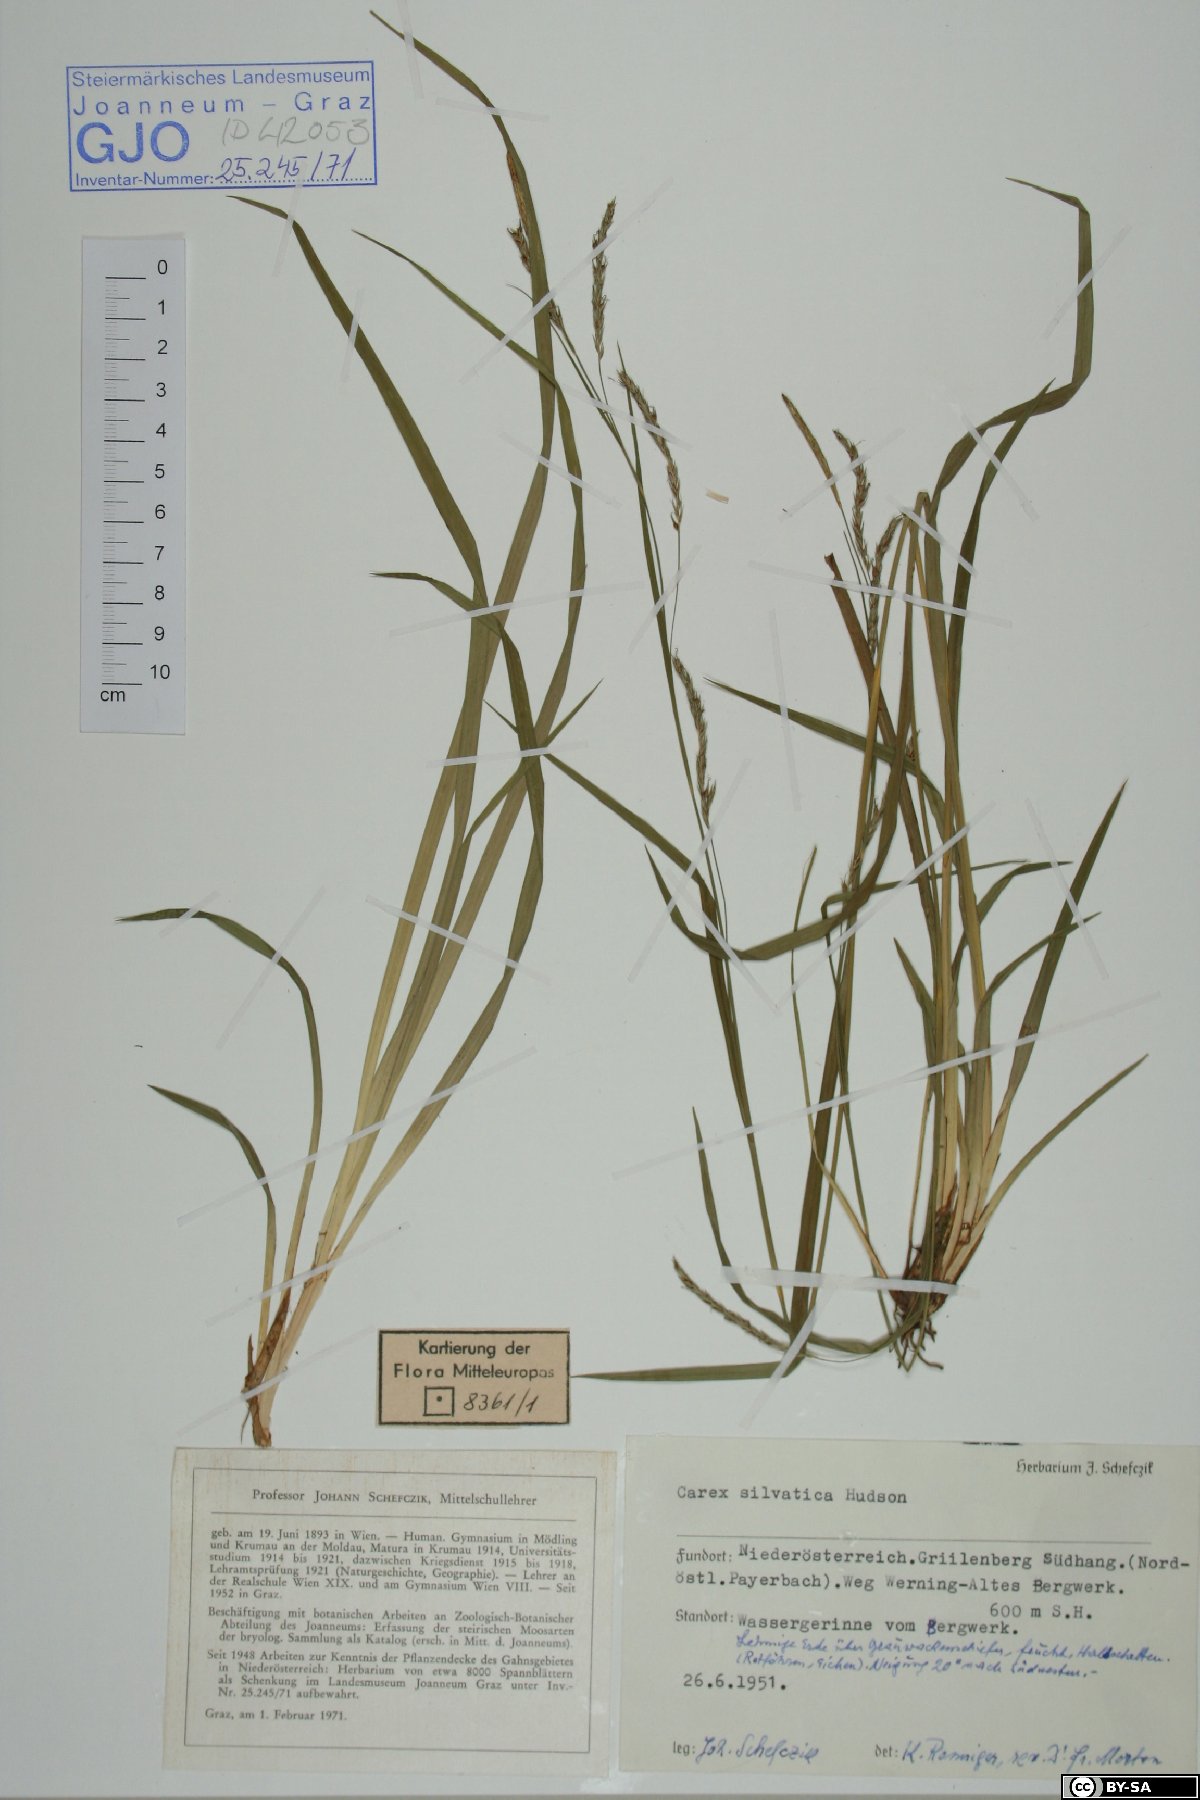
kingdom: Plantae
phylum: Tracheophyta
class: Liliopsida
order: Poales
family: Cyperaceae
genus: Carex
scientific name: Carex sylvatica
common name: Wood-sedge
